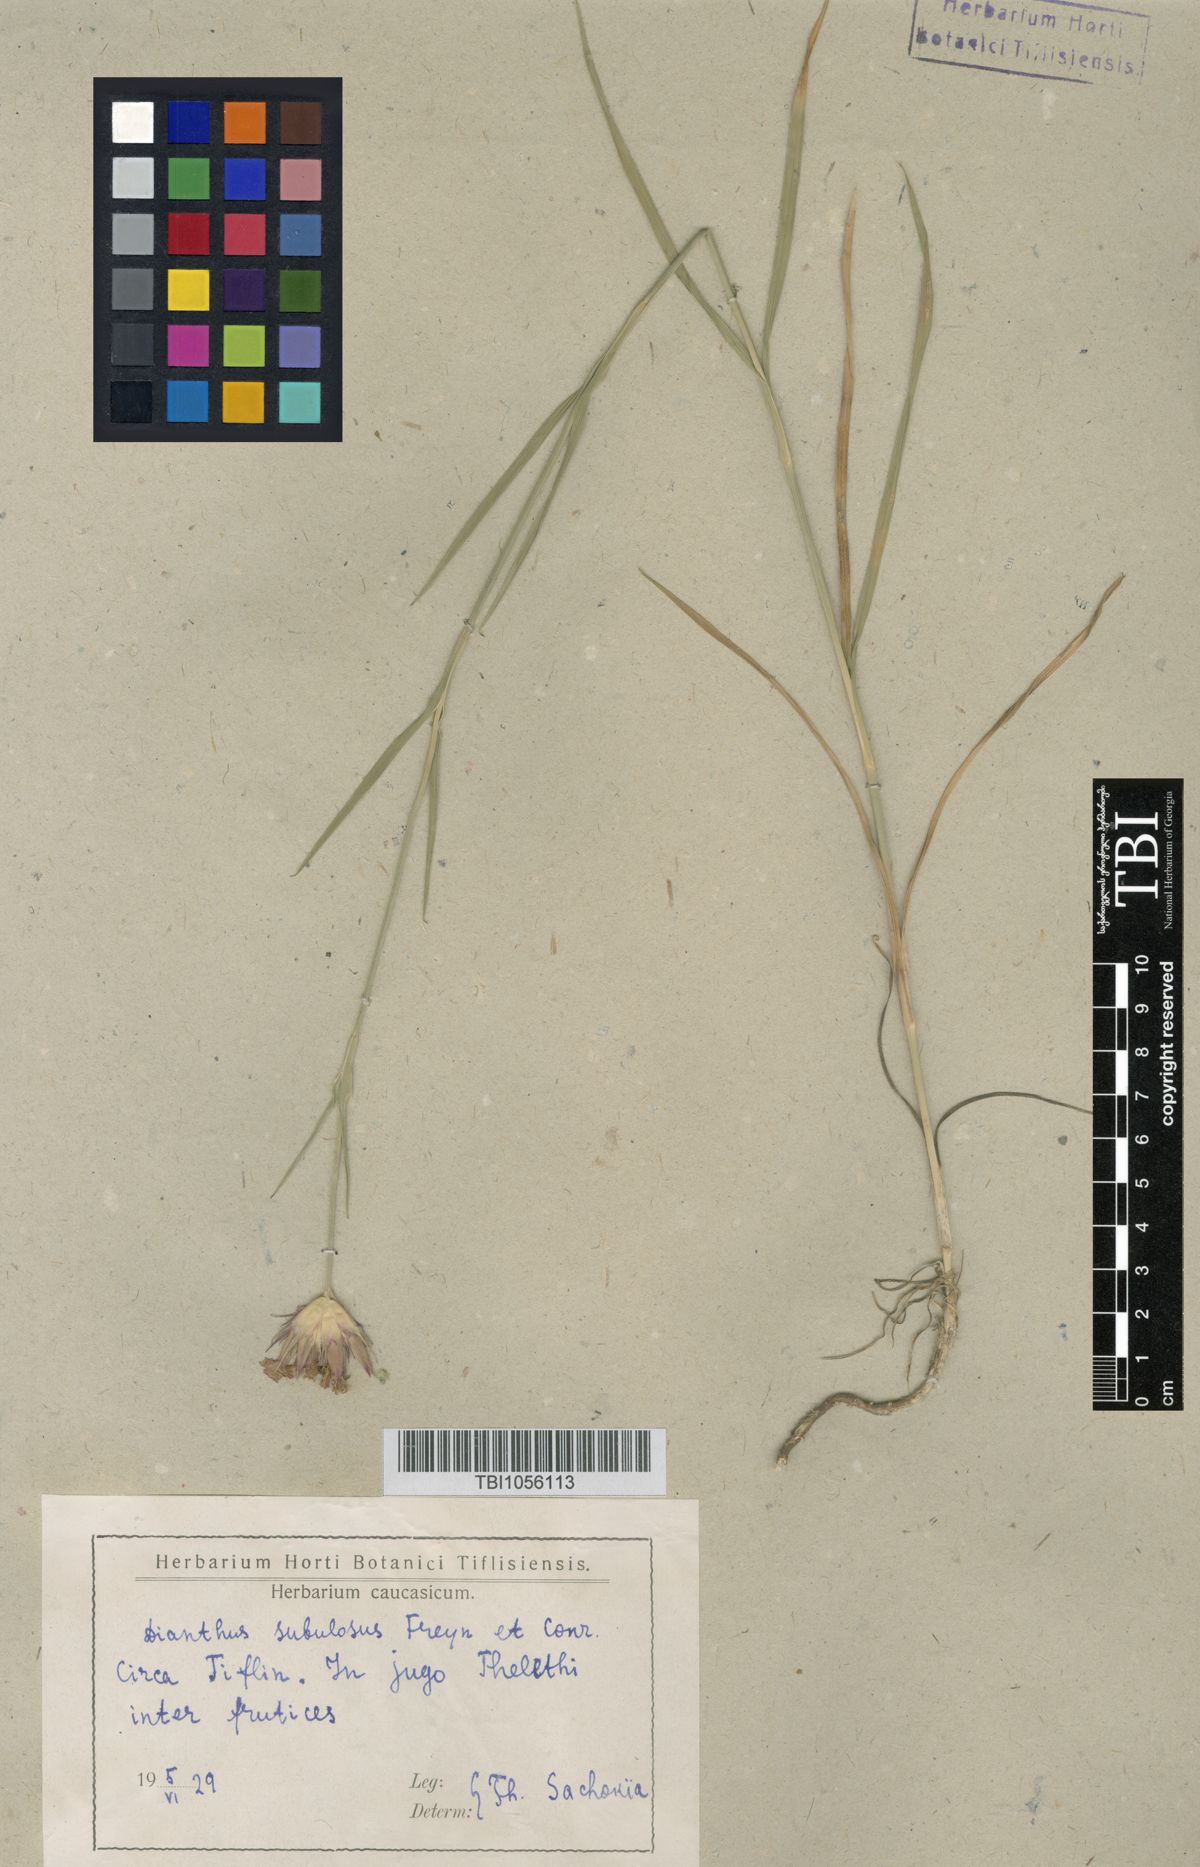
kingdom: Plantae
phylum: Tracheophyta
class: Magnoliopsida
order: Caryophyllales
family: Caryophyllaceae
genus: Dianthus
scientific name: Dianthus subulosus
